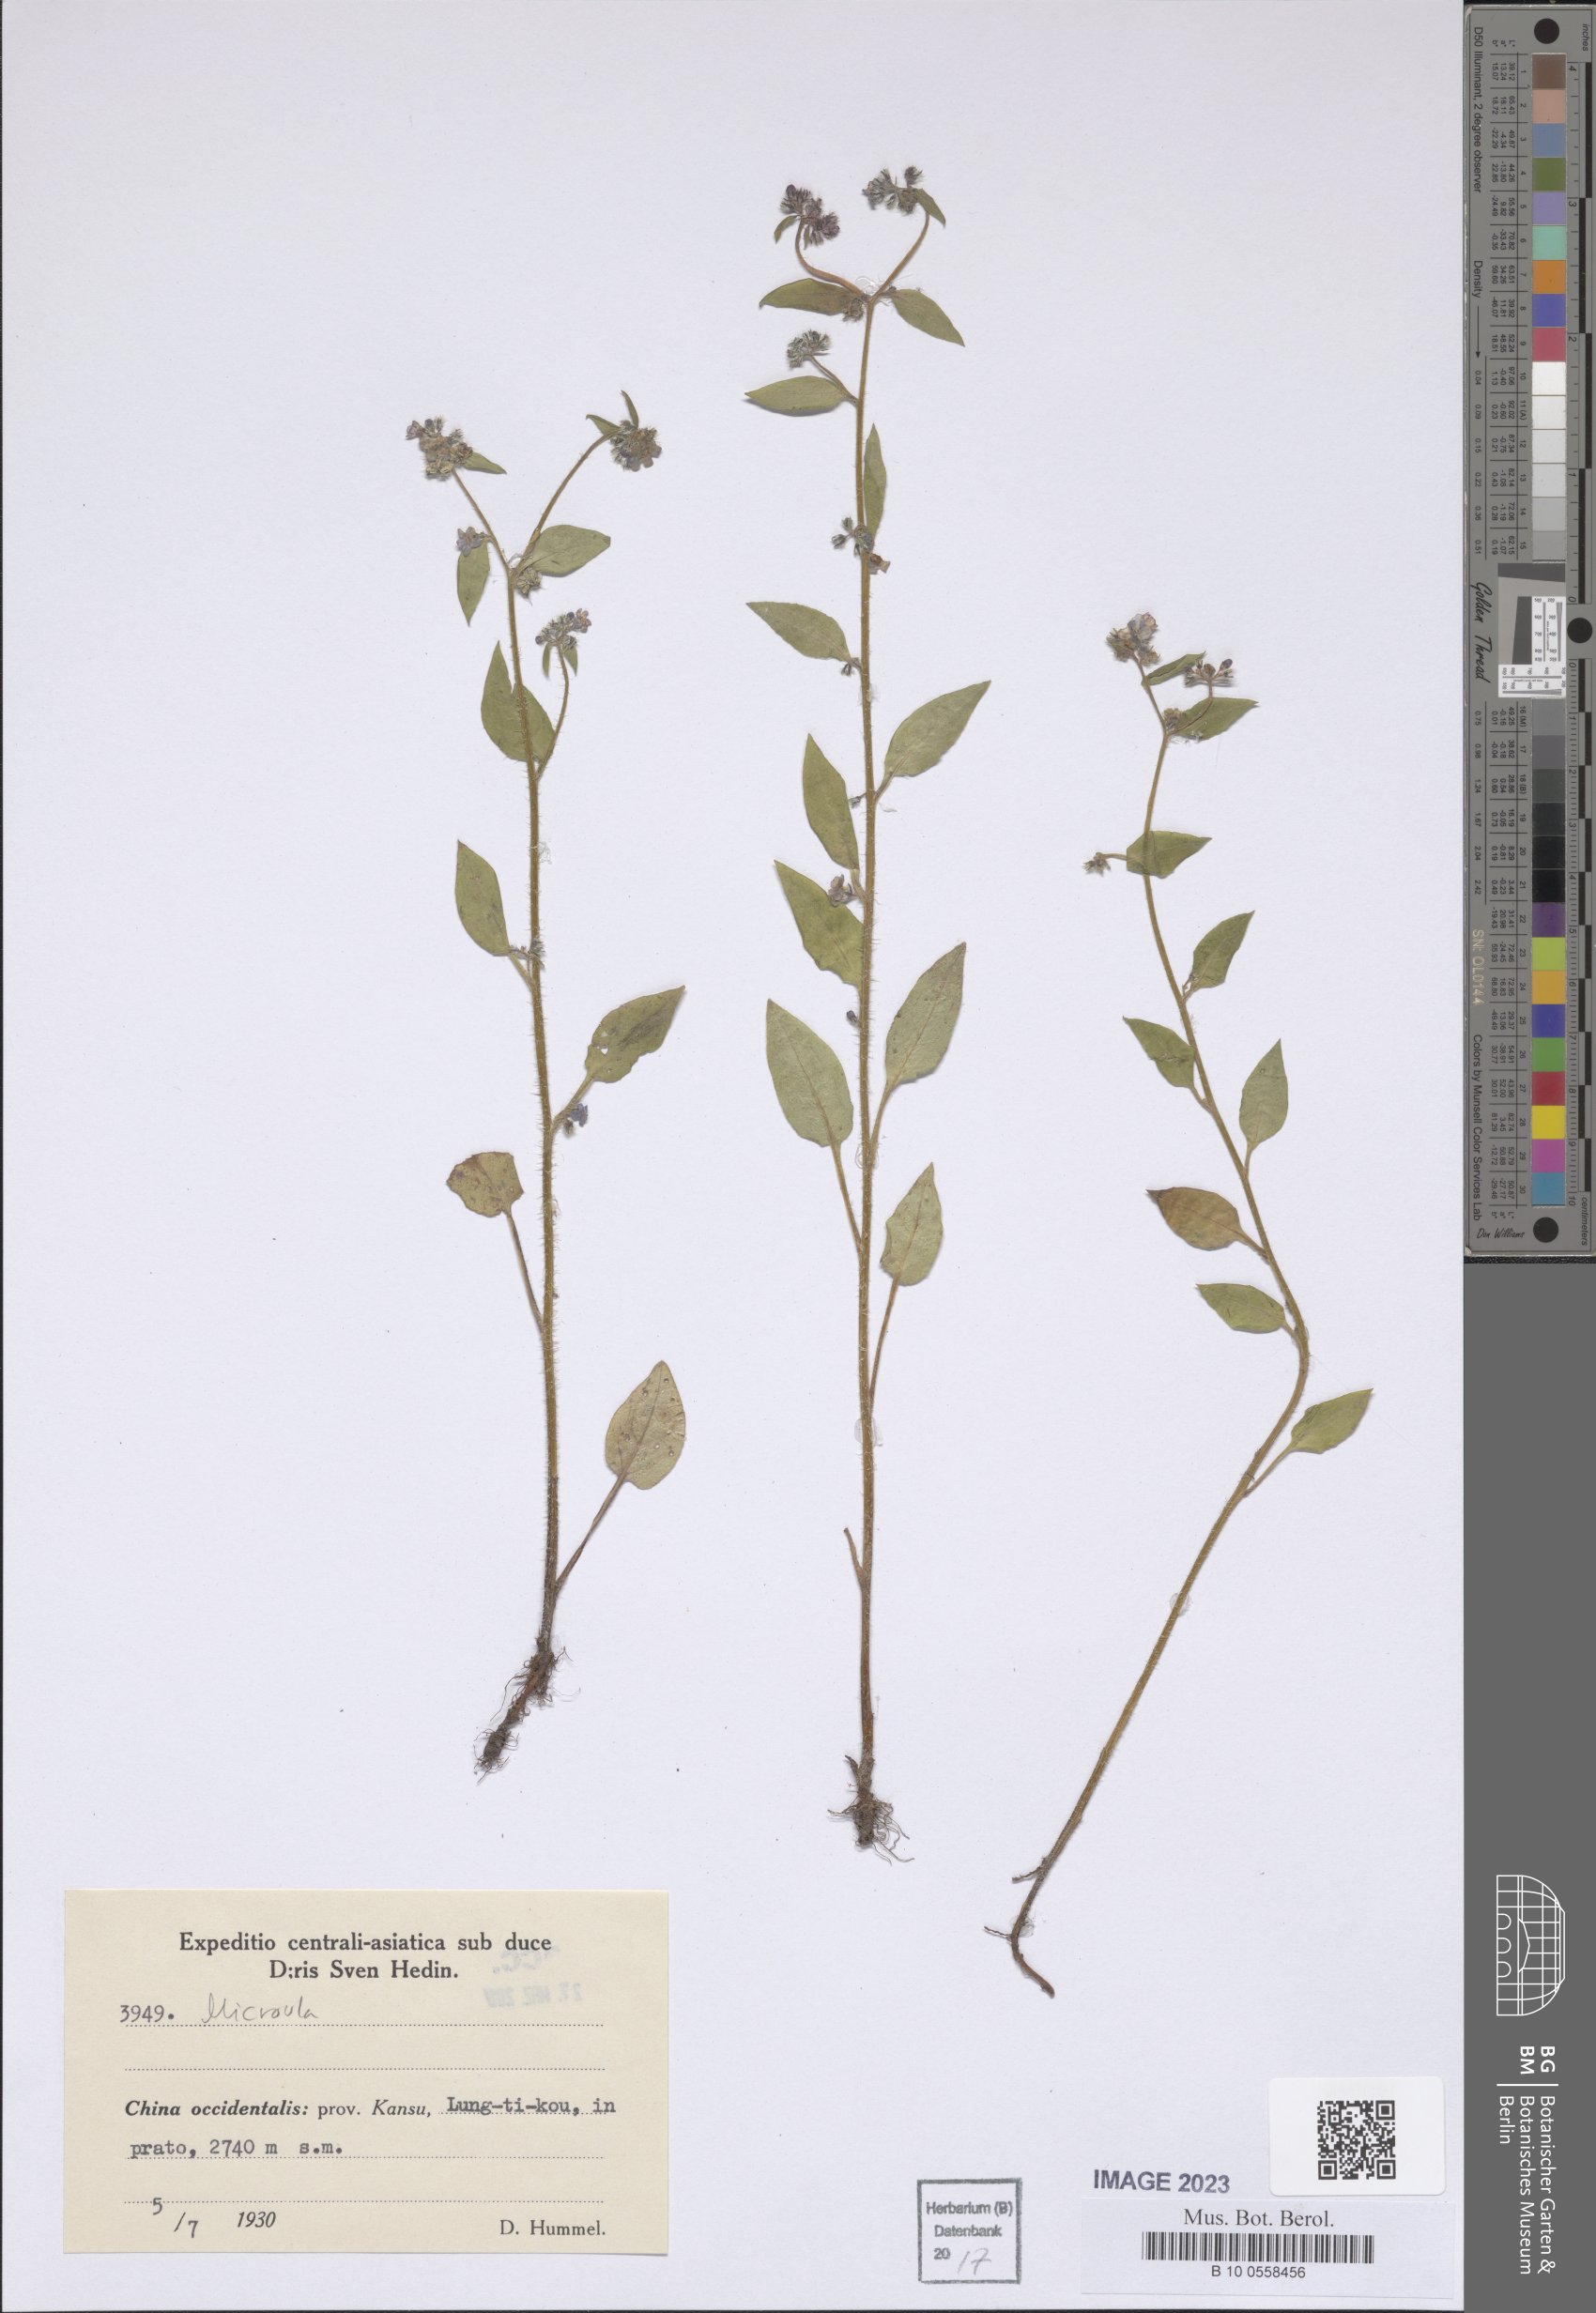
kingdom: Plantae
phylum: Tracheophyta
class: Magnoliopsida
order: Boraginales
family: Boraginaceae
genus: Microula
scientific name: Microula
